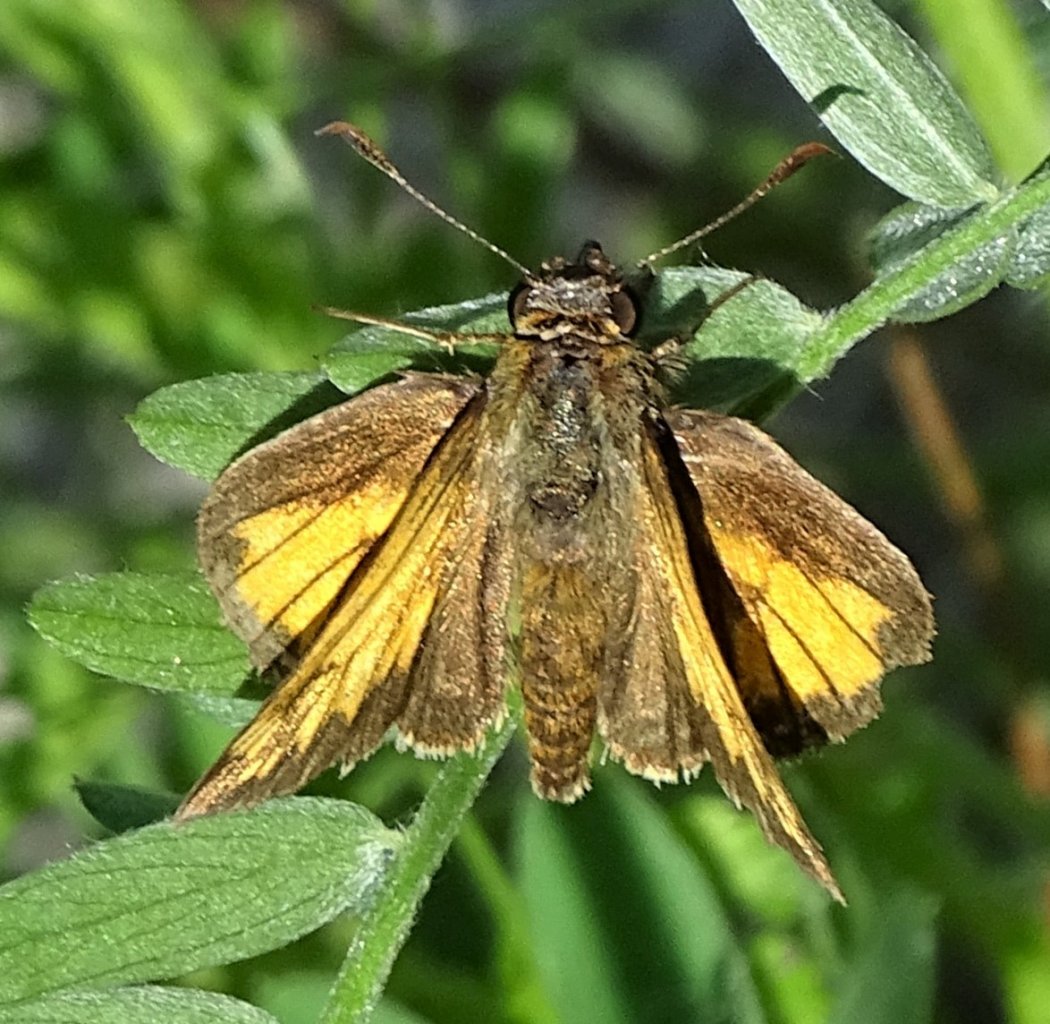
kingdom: Animalia
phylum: Arthropoda
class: Insecta
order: Lepidoptera
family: Hesperiidae
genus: Lon
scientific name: Lon hobomok
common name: Hobomok Skipper
